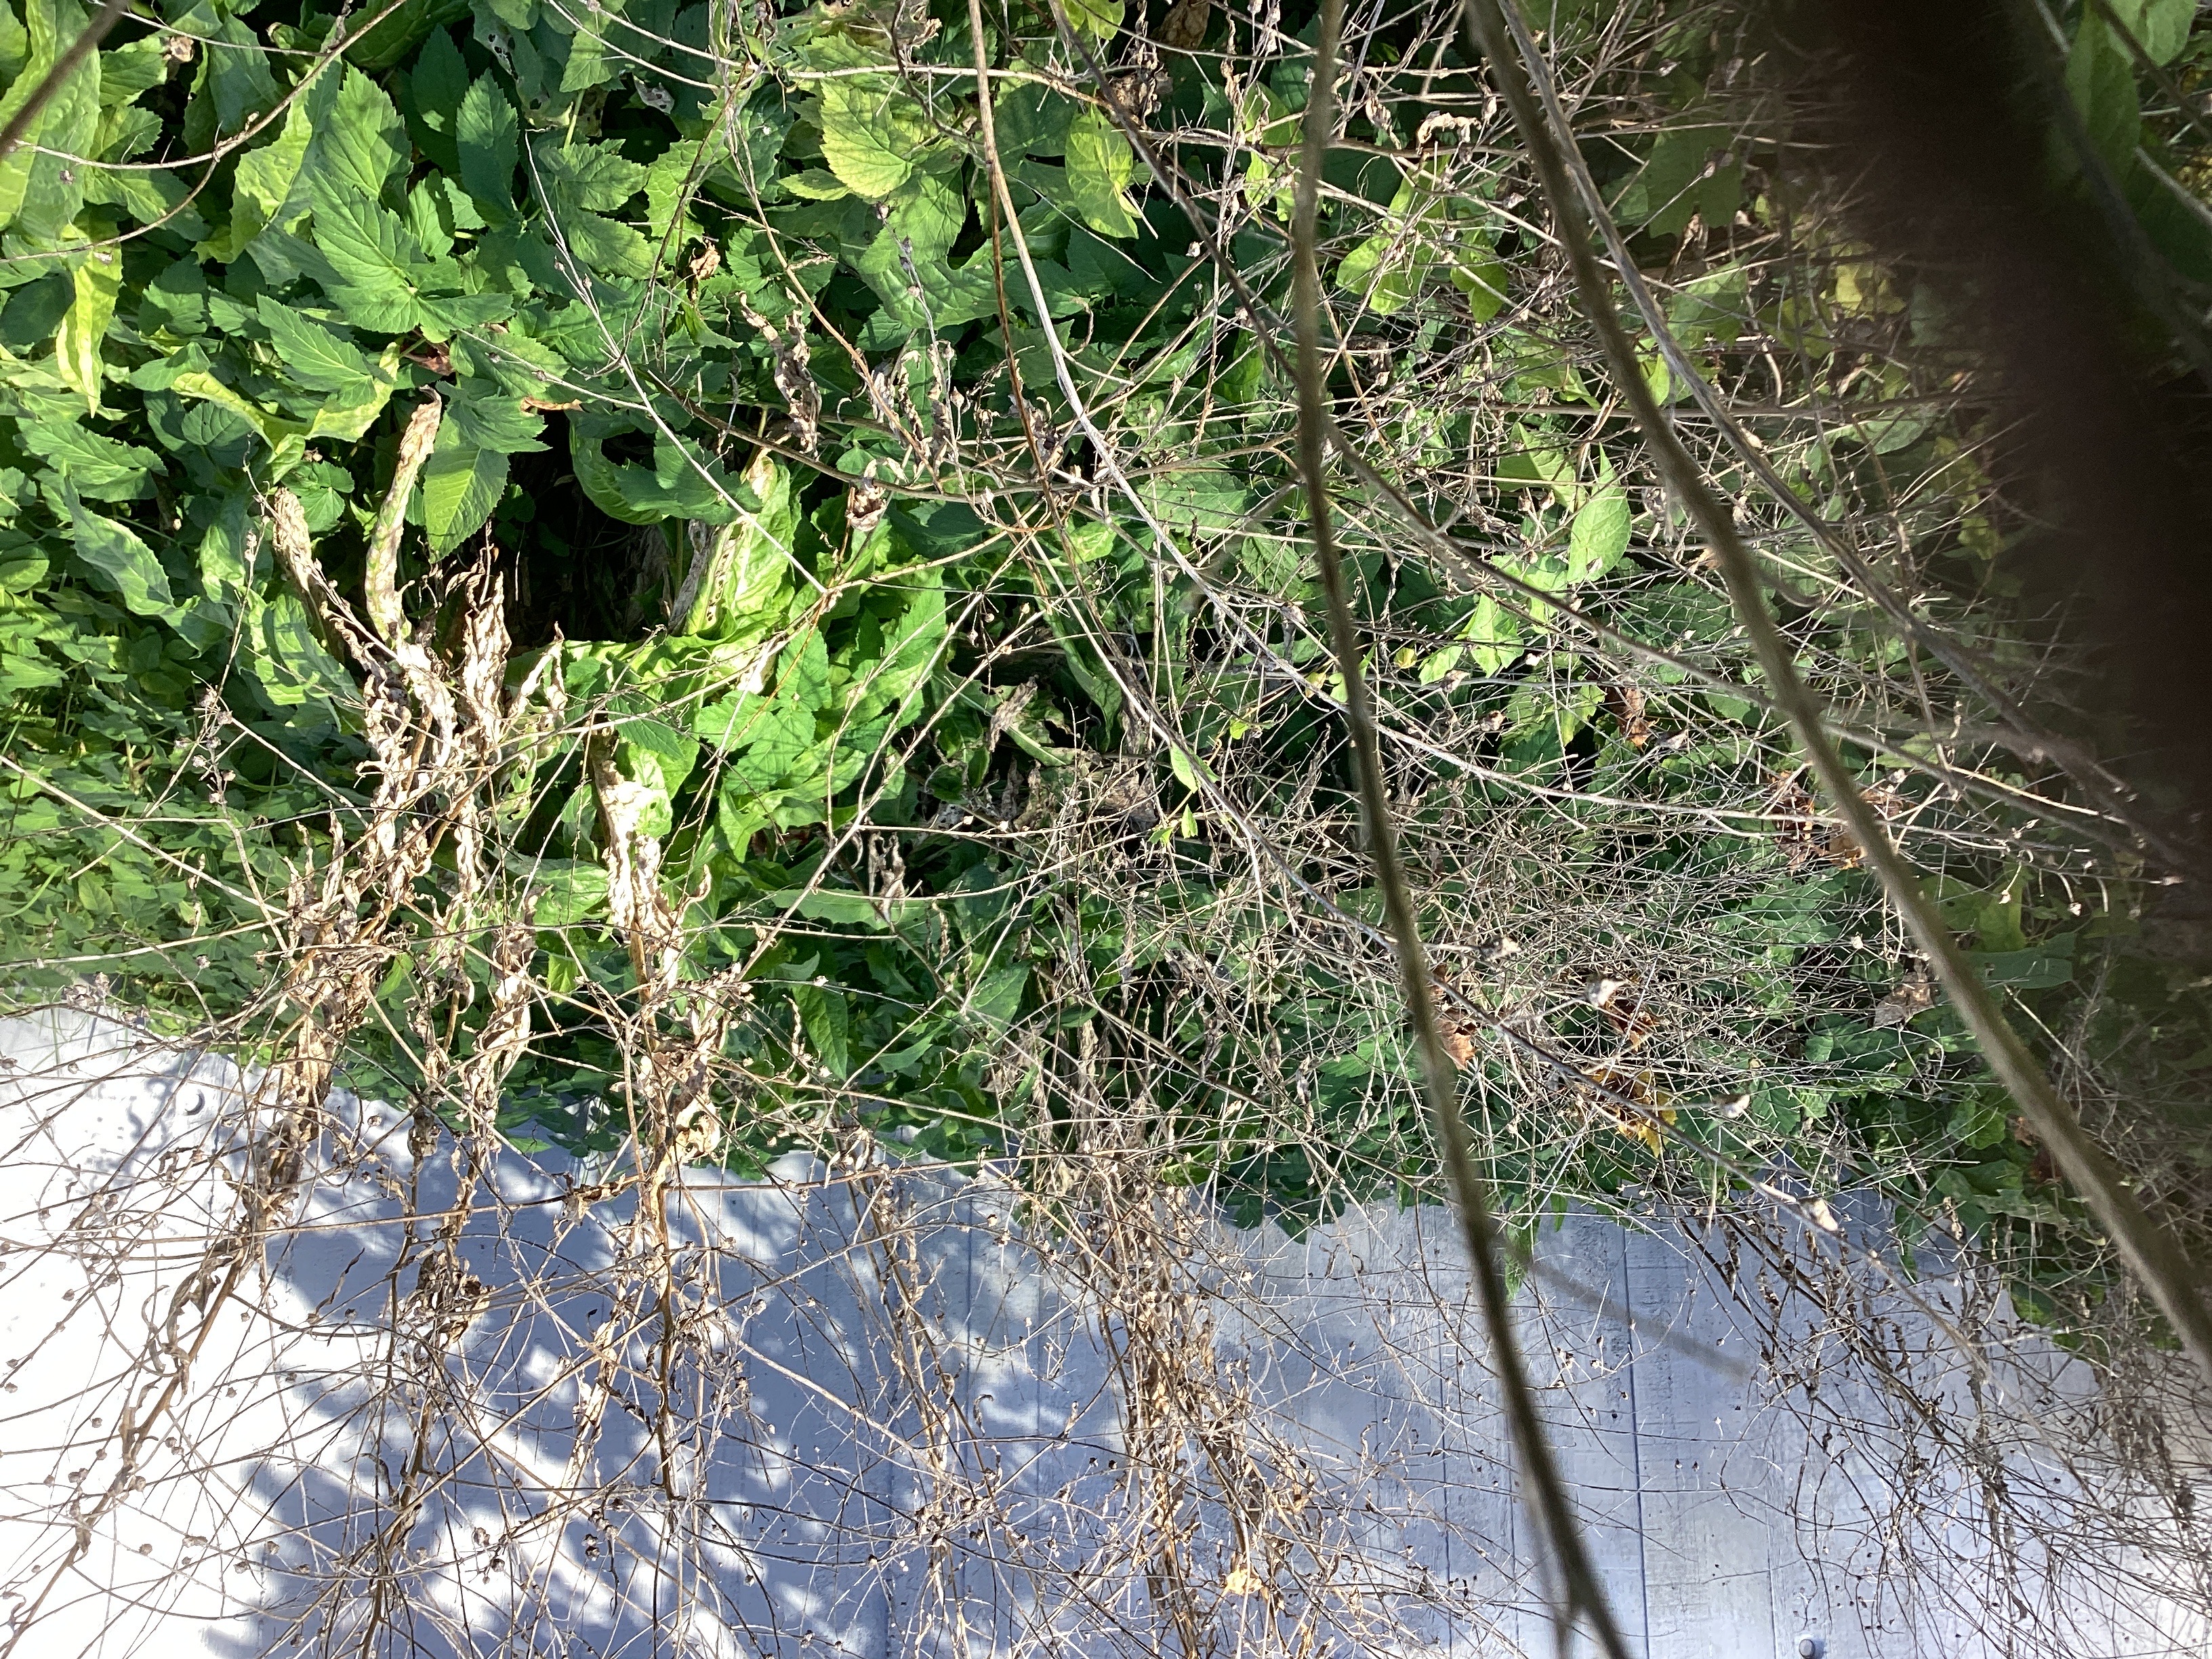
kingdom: Plantae
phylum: Tracheophyta
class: Magnoliopsida
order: Brassicales
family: Brassicaceae
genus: Bunias
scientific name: Bunias orientalis
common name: russekål
